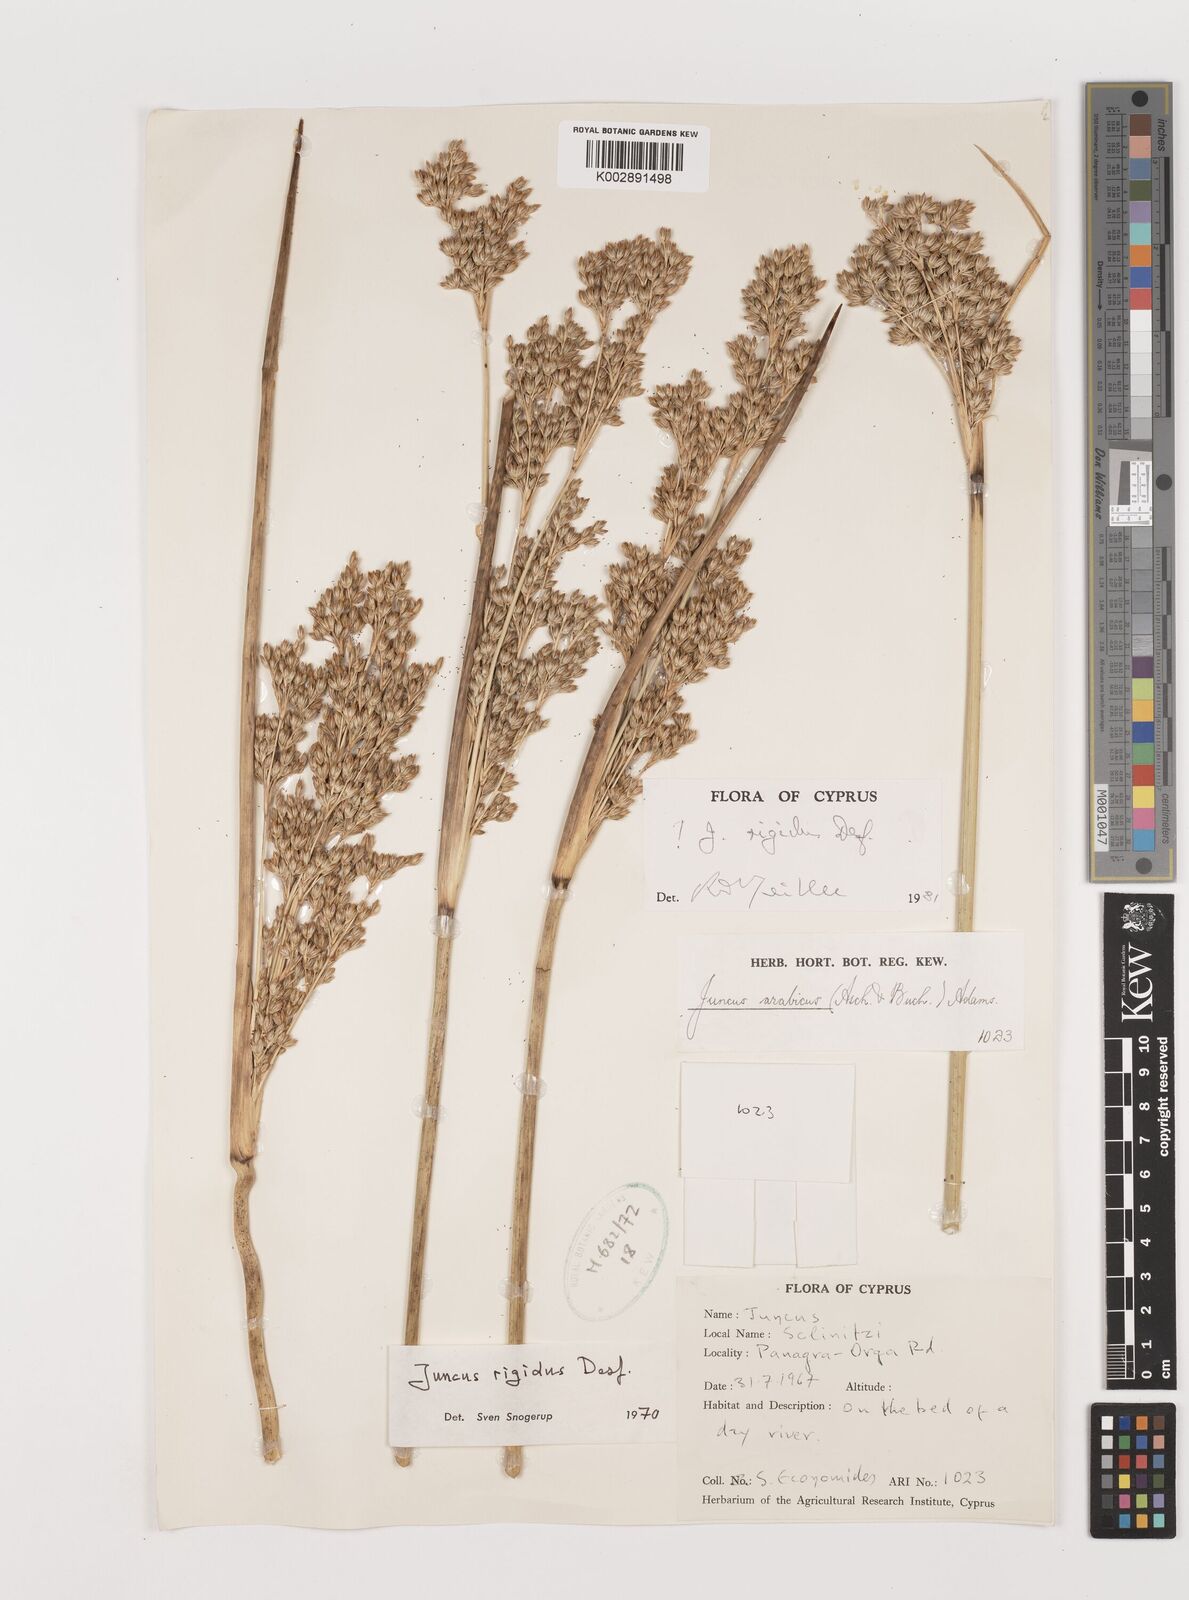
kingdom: Plantae
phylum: Tracheophyta
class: Liliopsida
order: Poales
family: Juncaceae
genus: Juncus
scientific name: Juncus rigidus
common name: Hard sea rush
